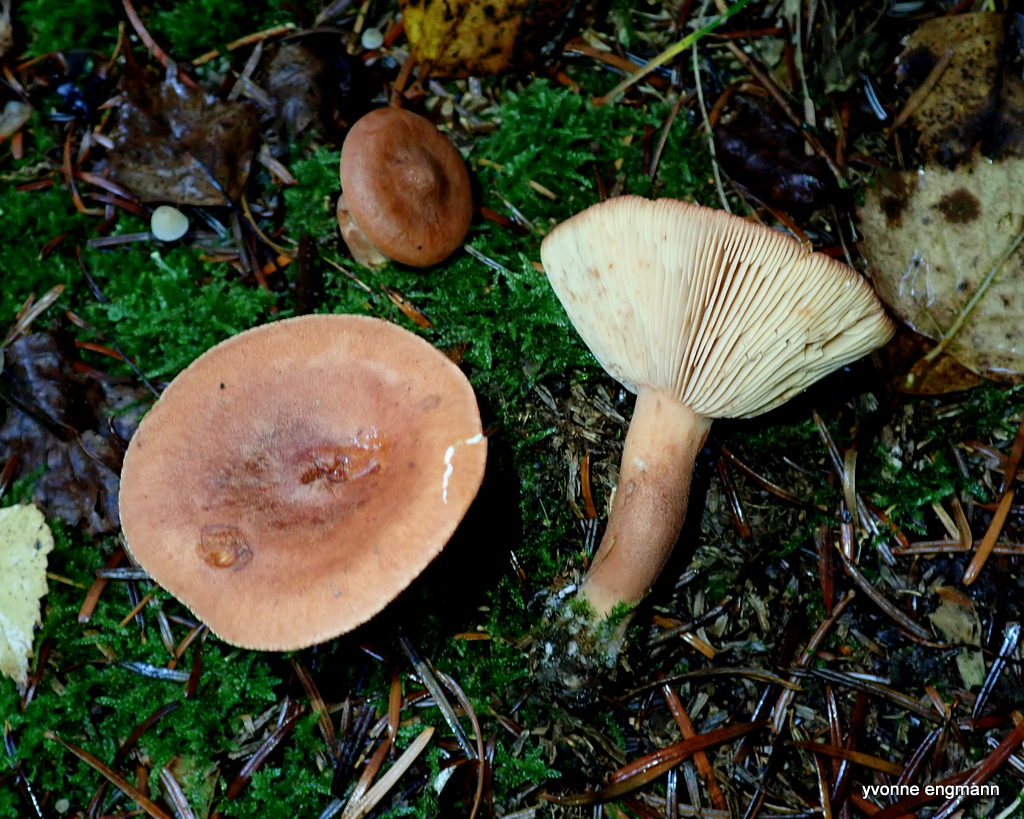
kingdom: Fungi
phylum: Basidiomycota
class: Agaricomycetes
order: Russulales
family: Russulaceae
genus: Lactarius
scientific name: Lactarius tabidus
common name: rynket mælkehat
